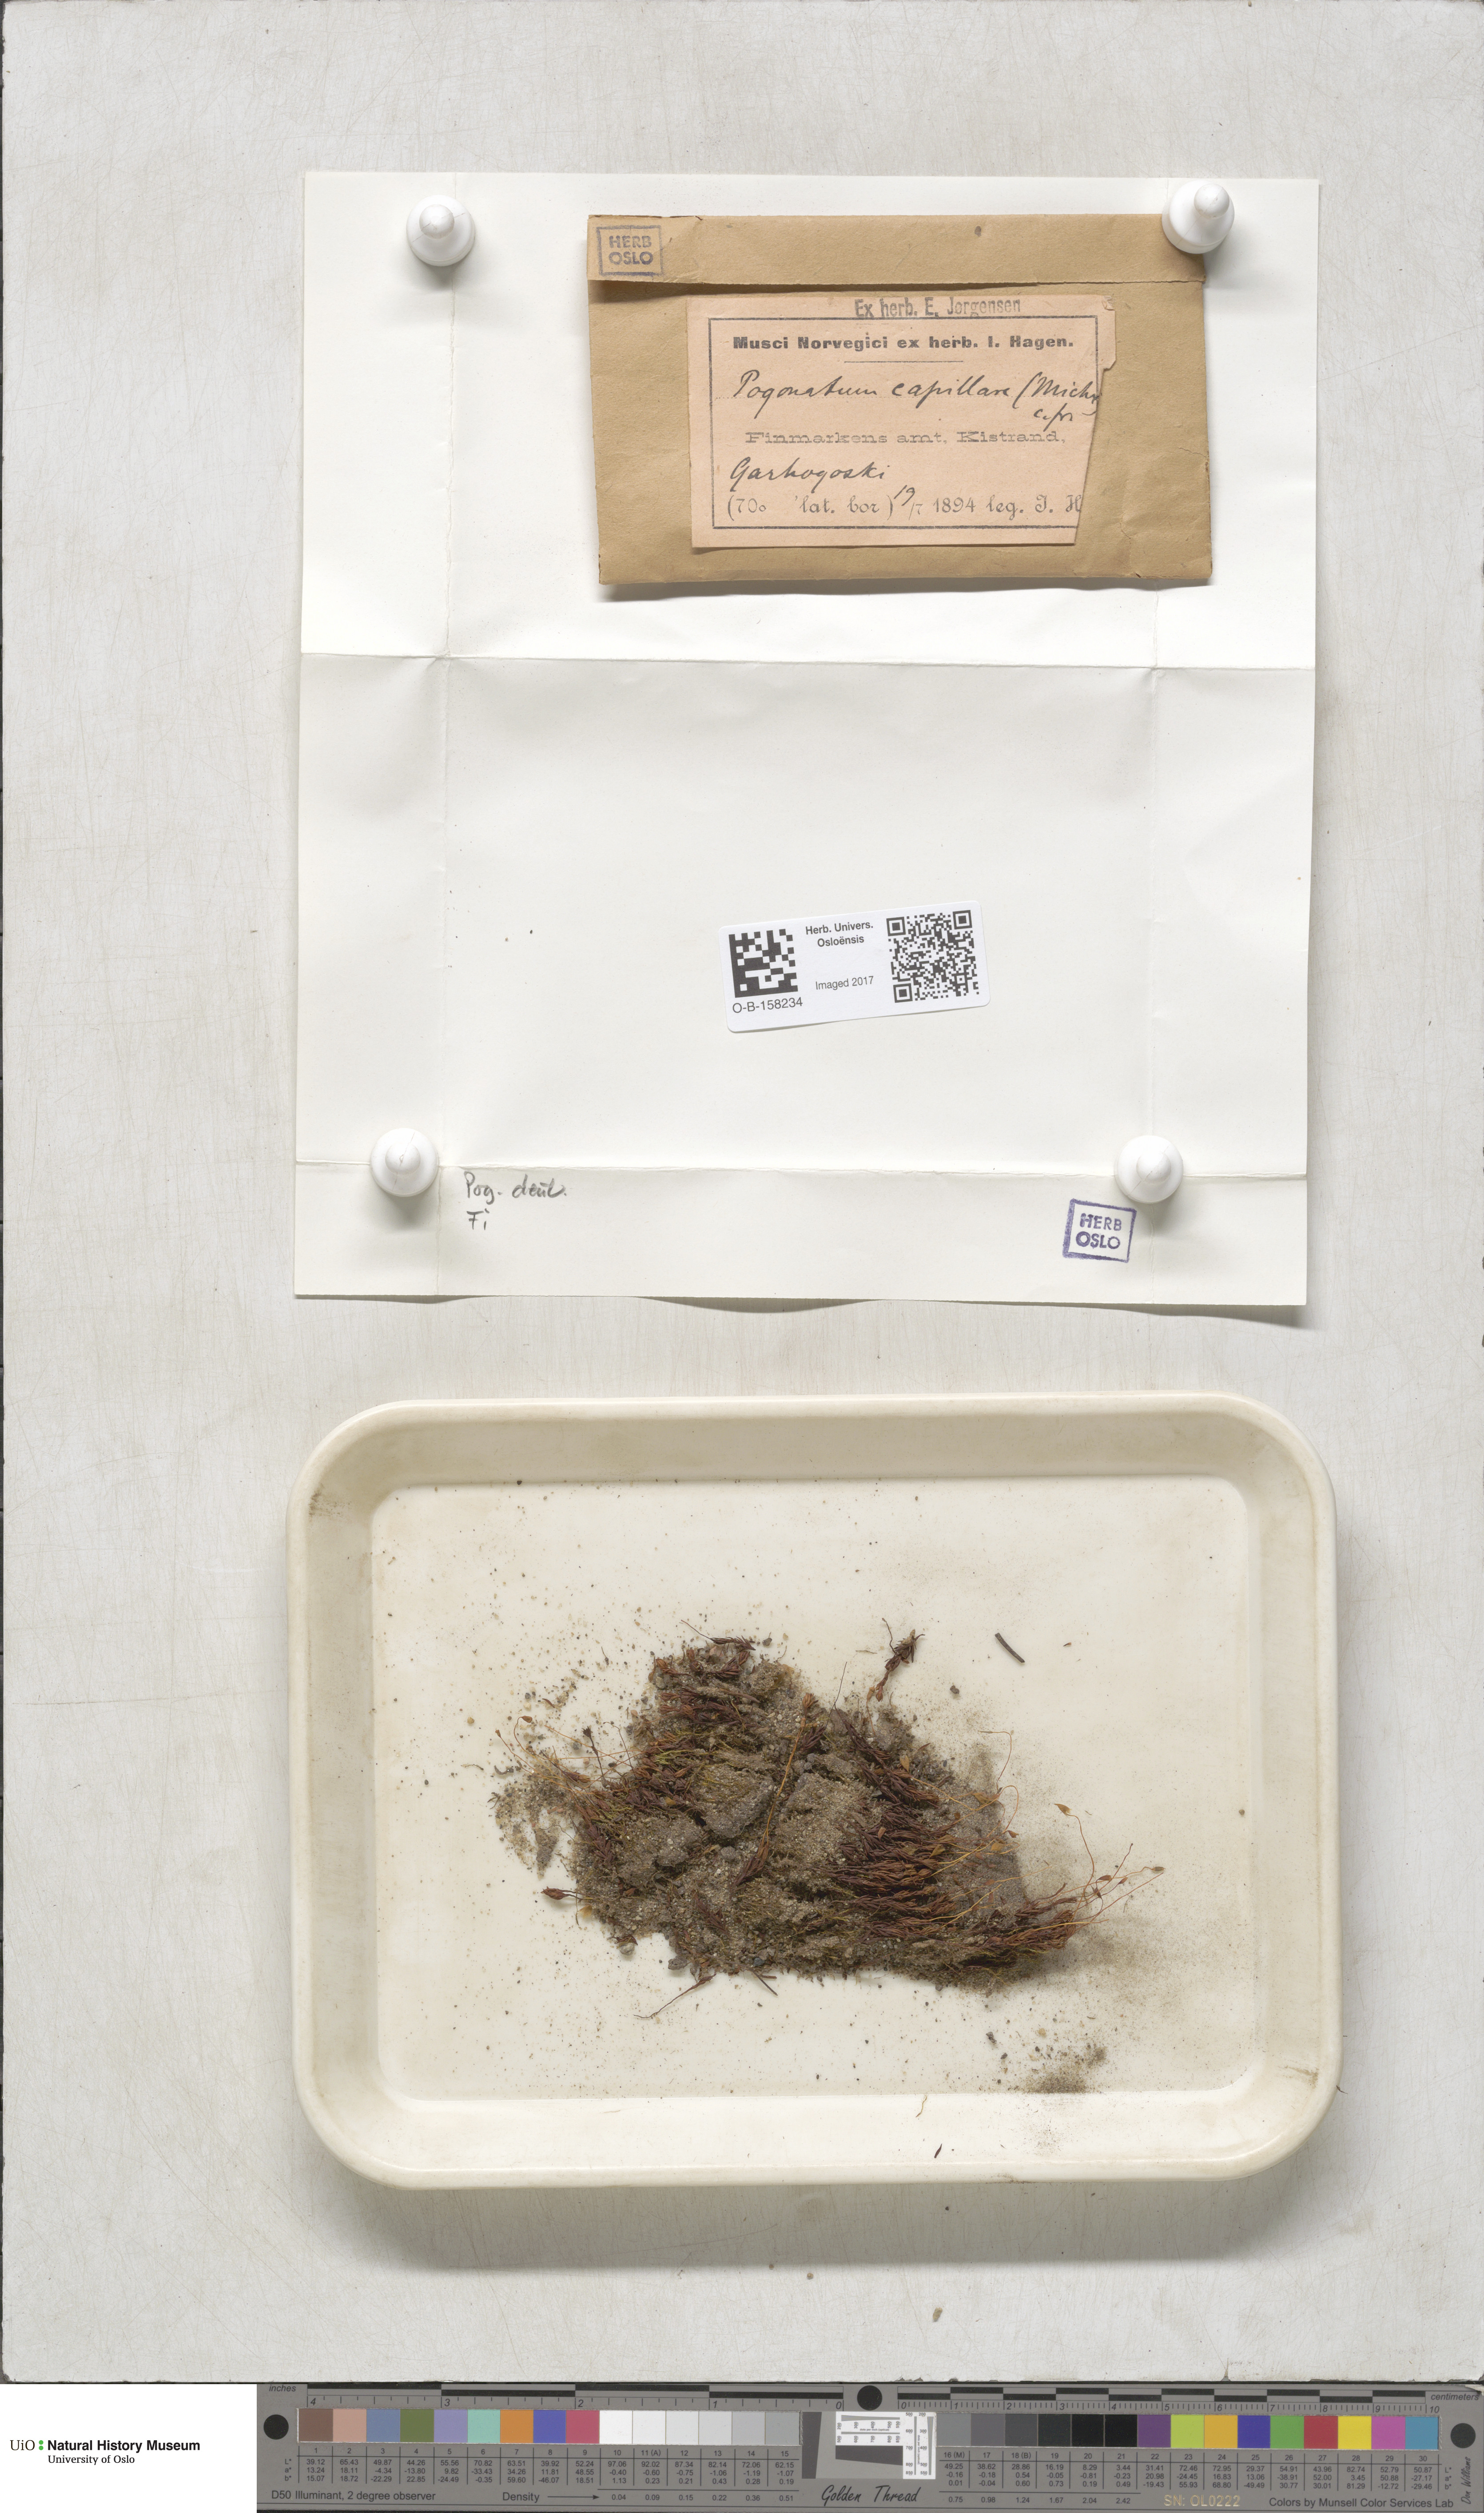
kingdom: Plantae
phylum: Bryophyta
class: Polytrichopsida
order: Polytrichales
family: Polytrichaceae
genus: Pogonatum
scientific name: Pogonatum dentatum
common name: Mountain hair moss
